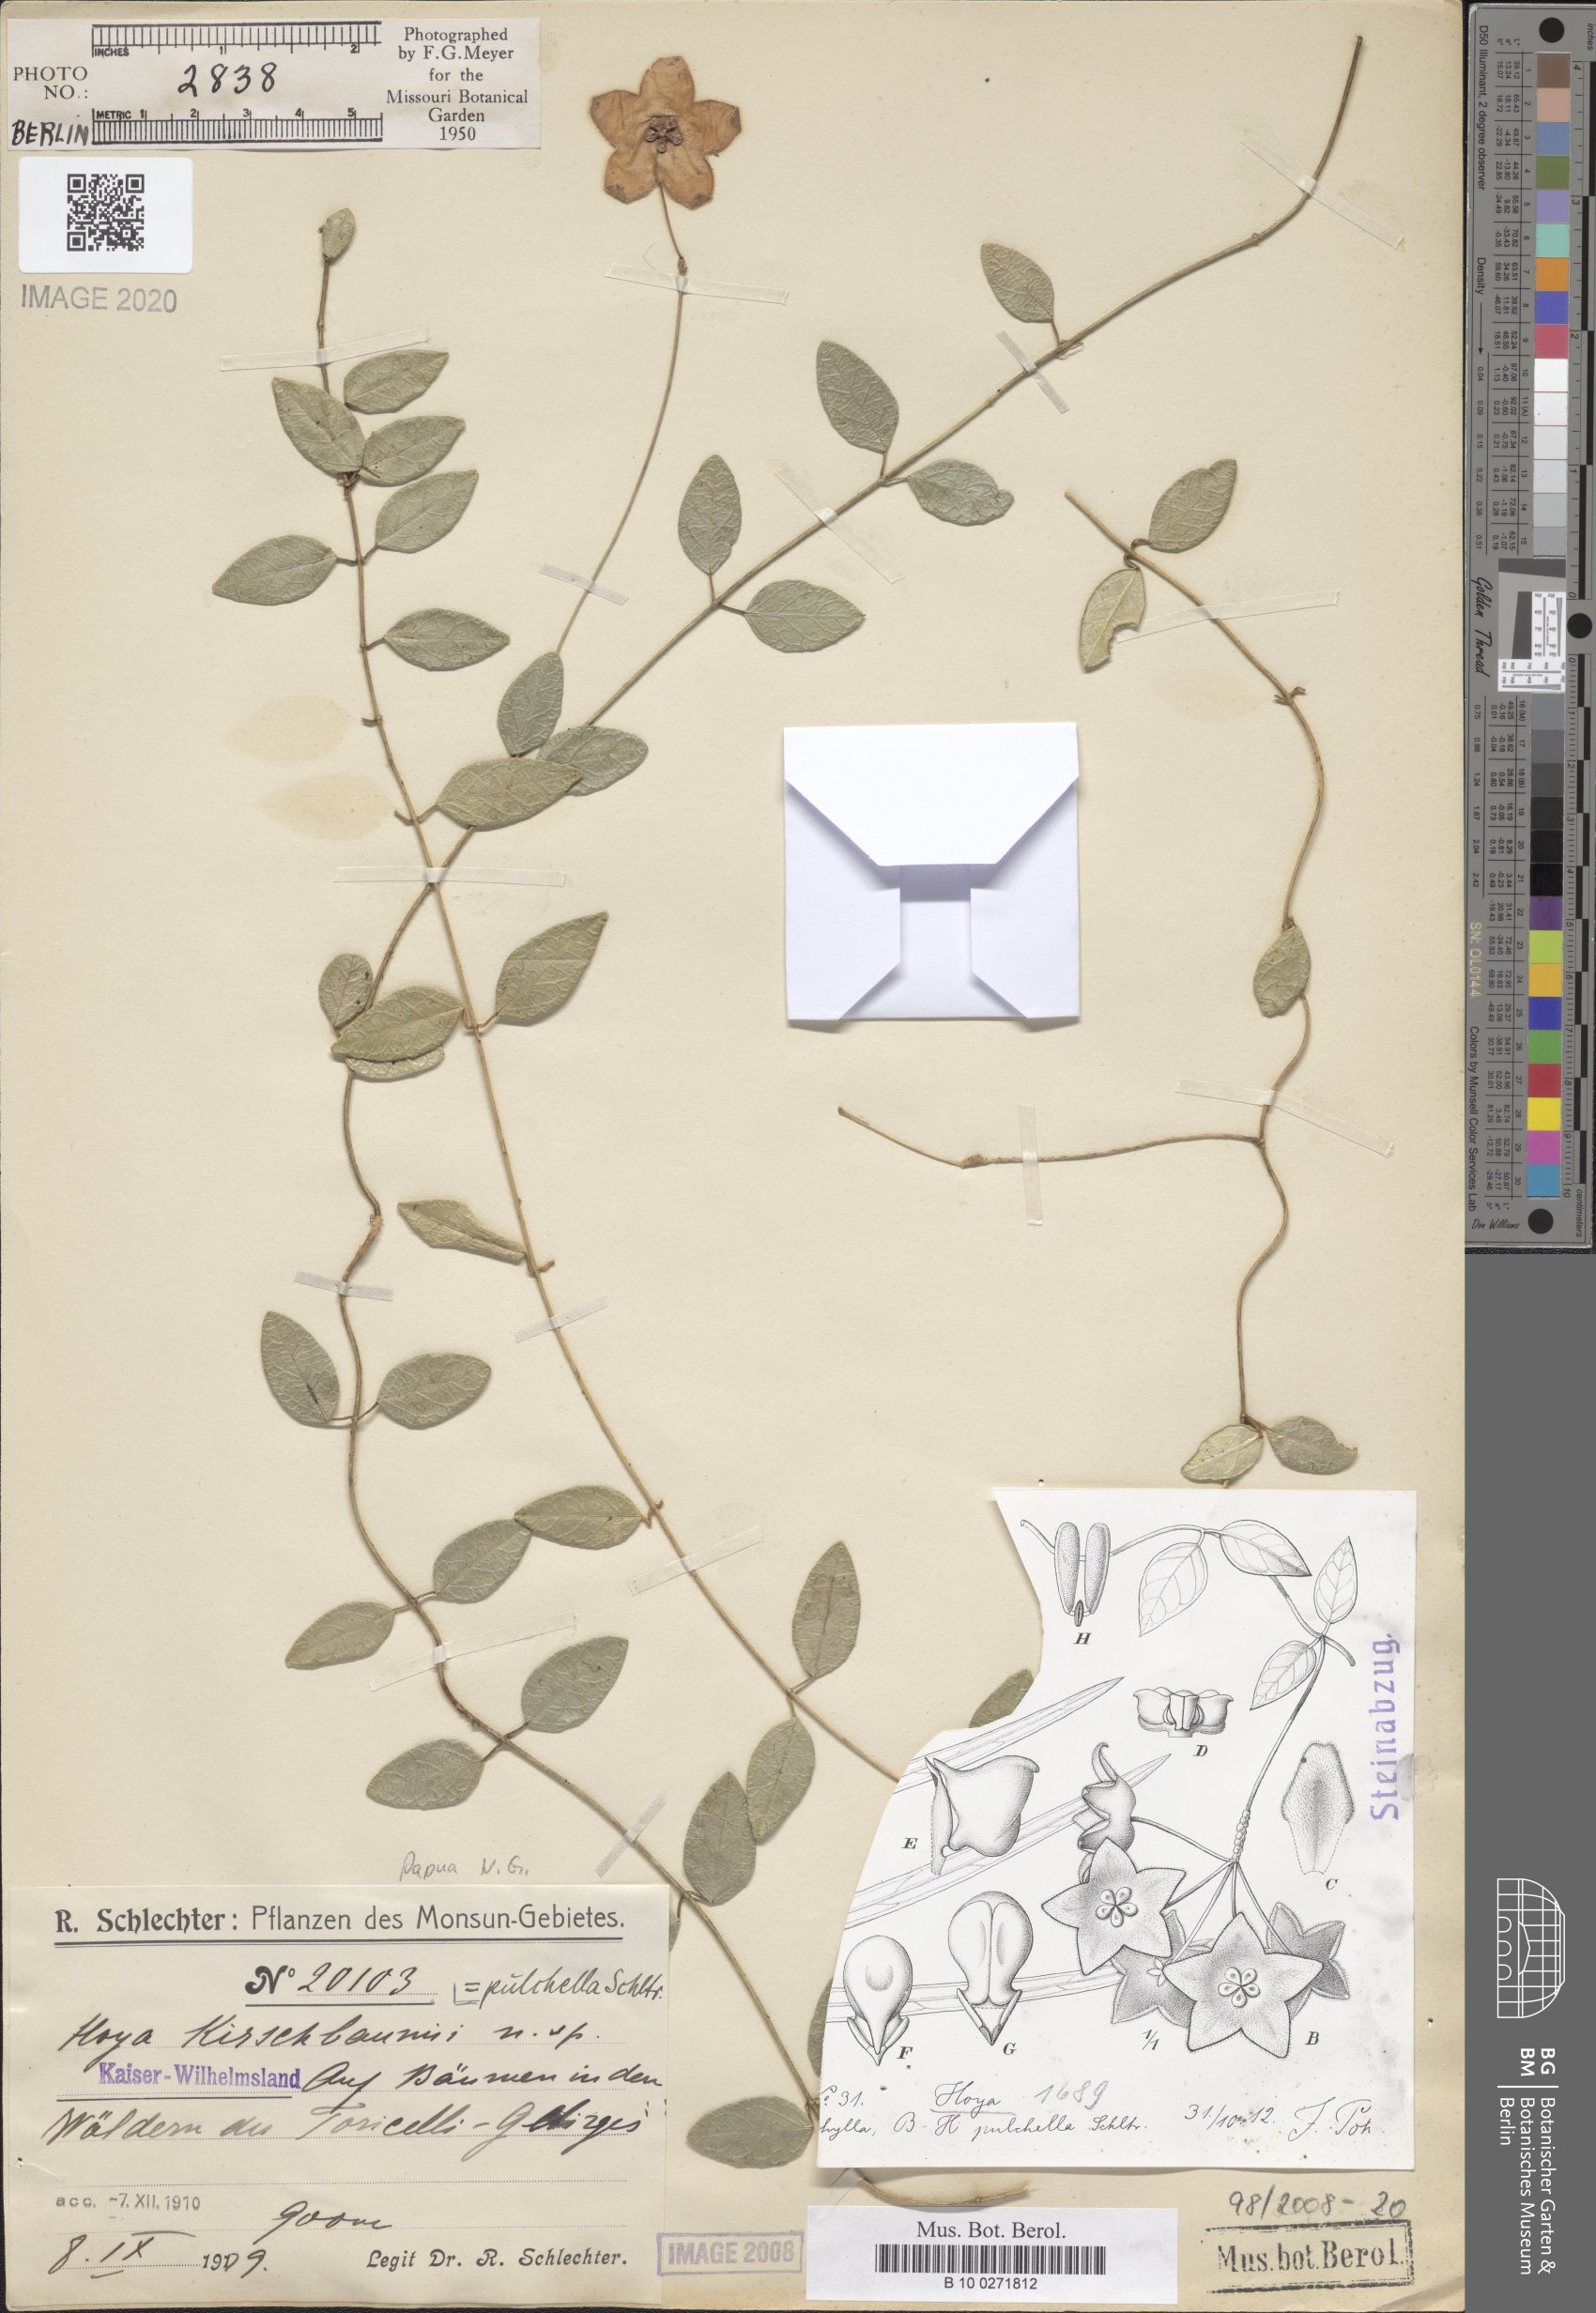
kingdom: Plantae
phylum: Tracheophyta
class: Magnoliopsida
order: Gentianales
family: Apocynaceae
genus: Hoya
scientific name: Hoya pulchella
